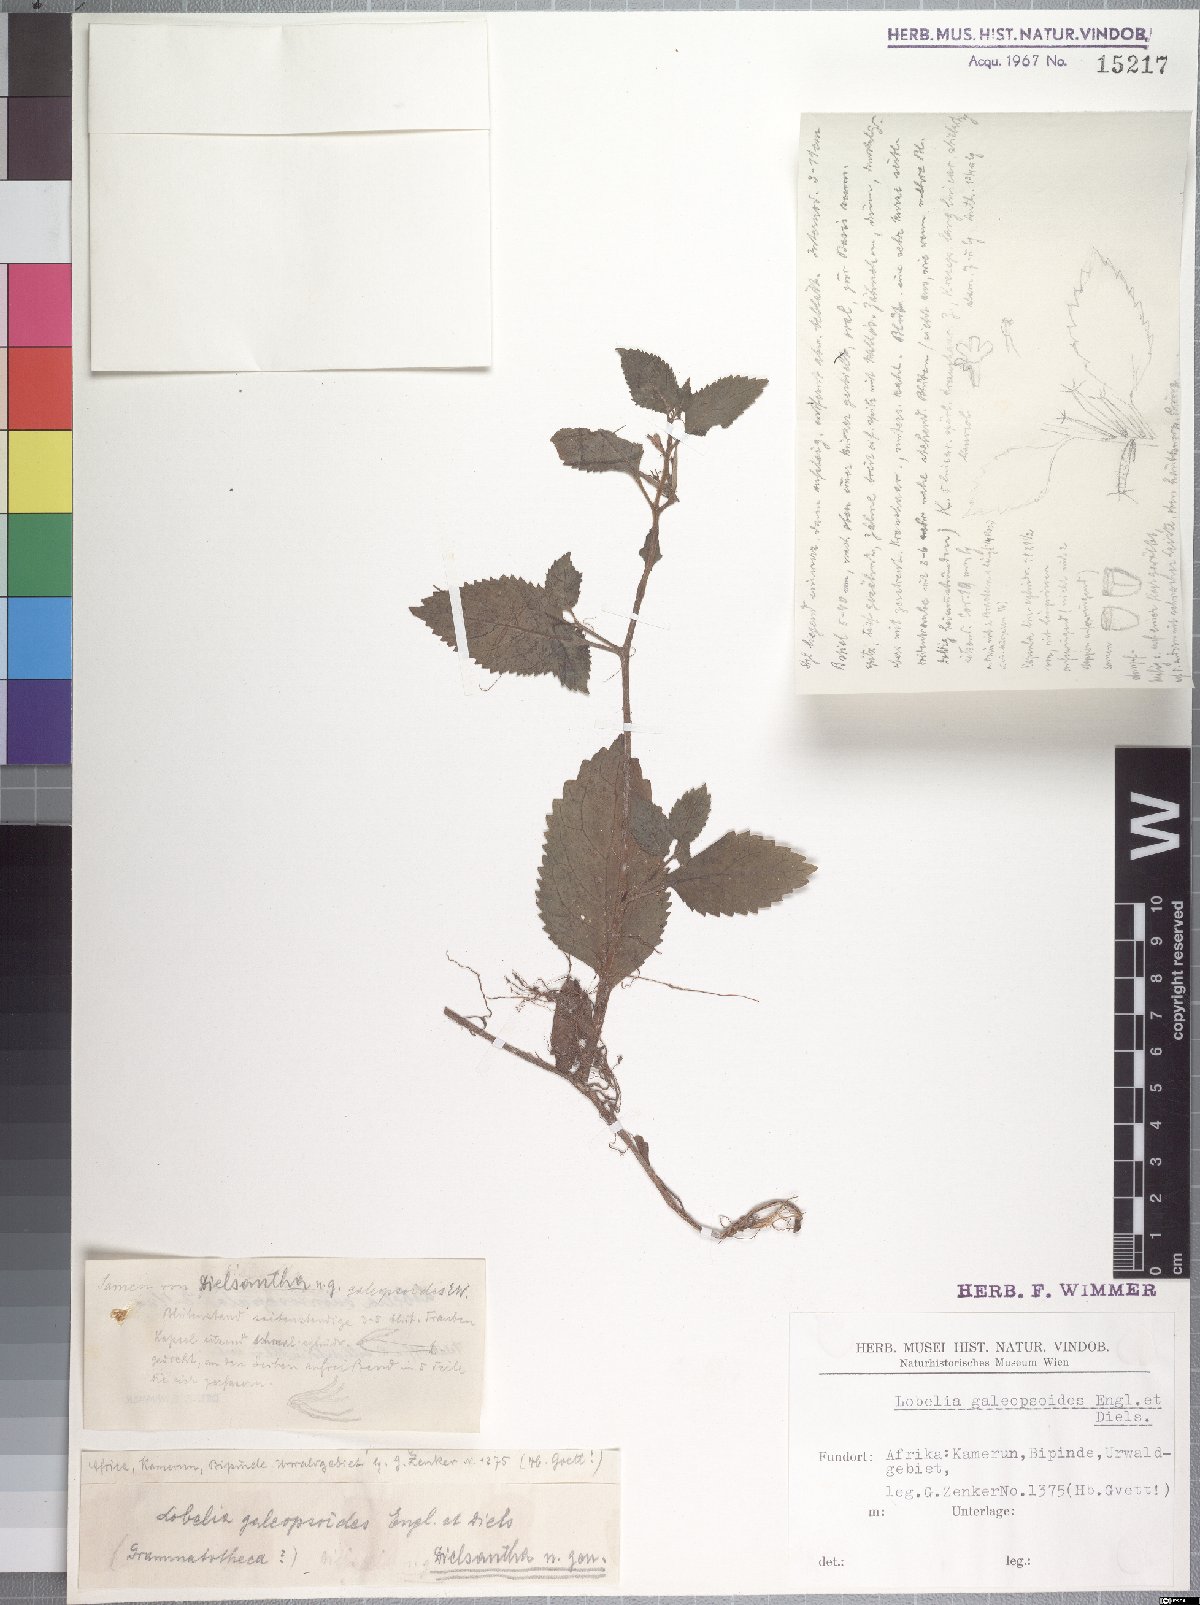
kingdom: Plantae
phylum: Tracheophyta
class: Magnoliopsida
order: Asterales
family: Campanulaceae
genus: Dielsantha
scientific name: Dielsantha galeopsoides
